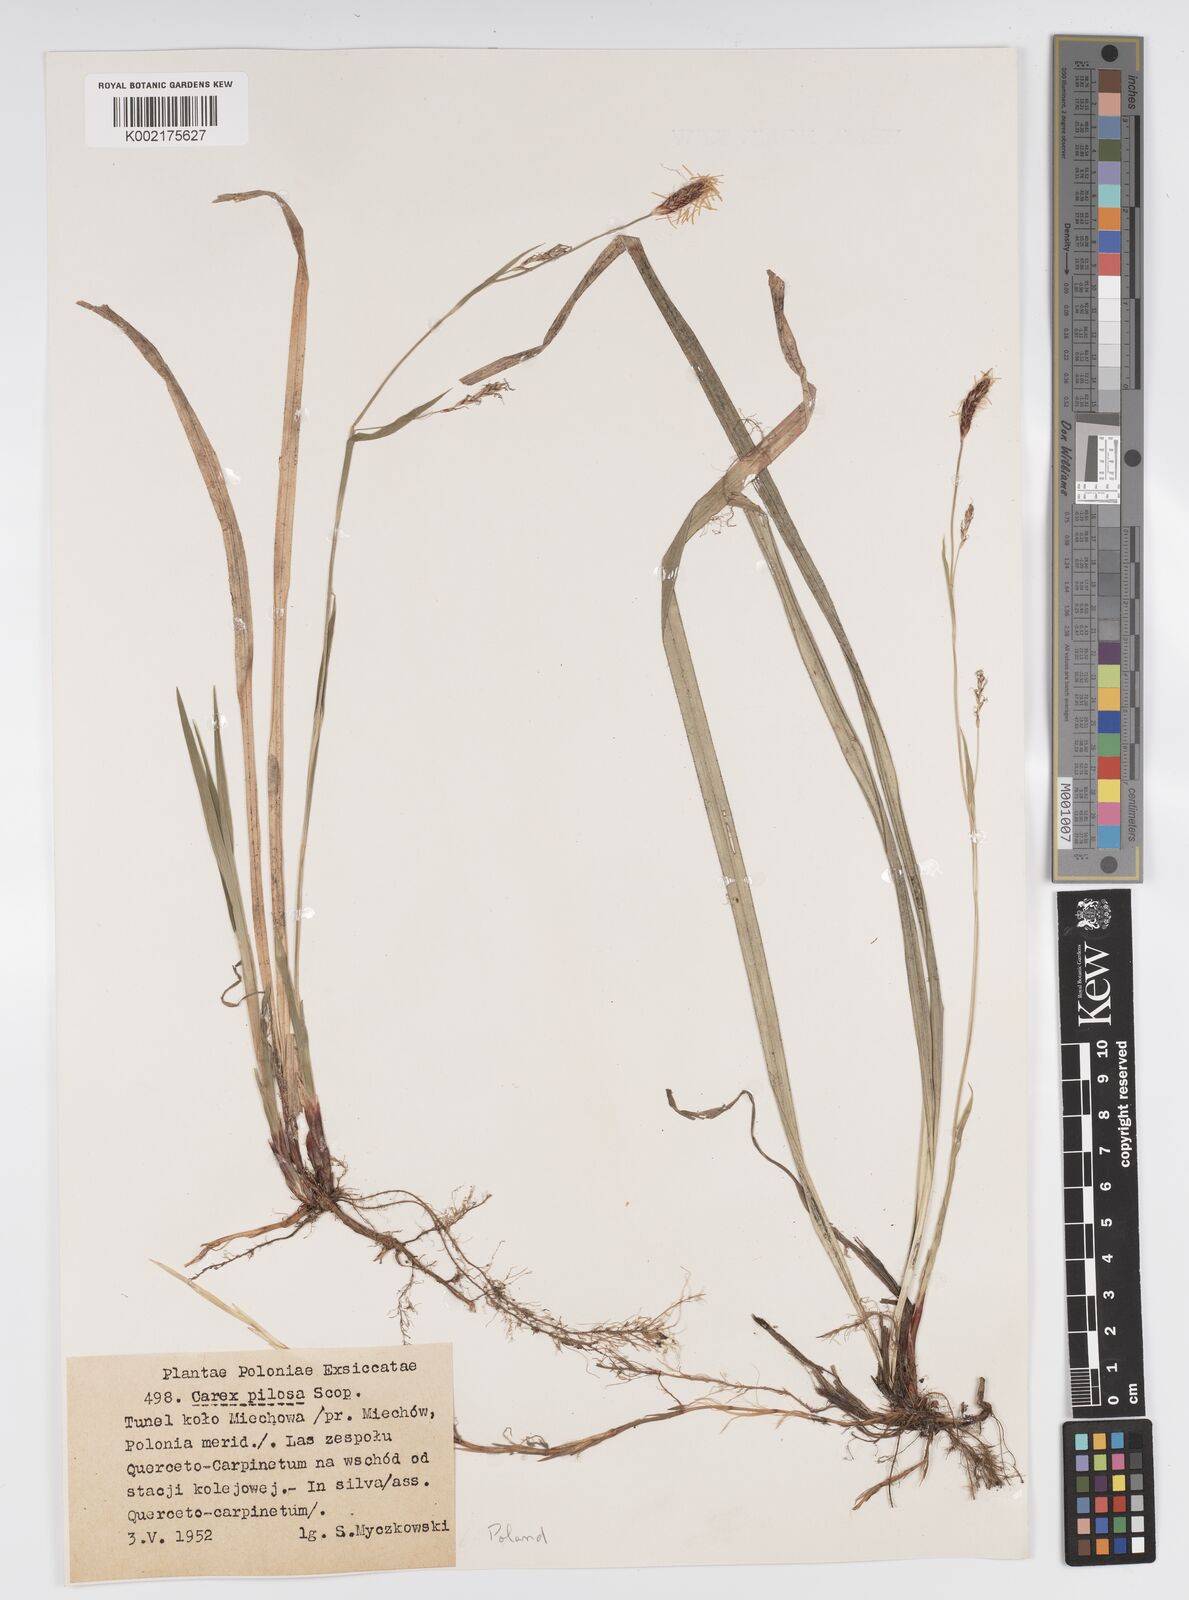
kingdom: Plantae
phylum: Tracheophyta
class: Liliopsida
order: Poales
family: Cyperaceae
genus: Carex
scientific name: Carex pilosa
